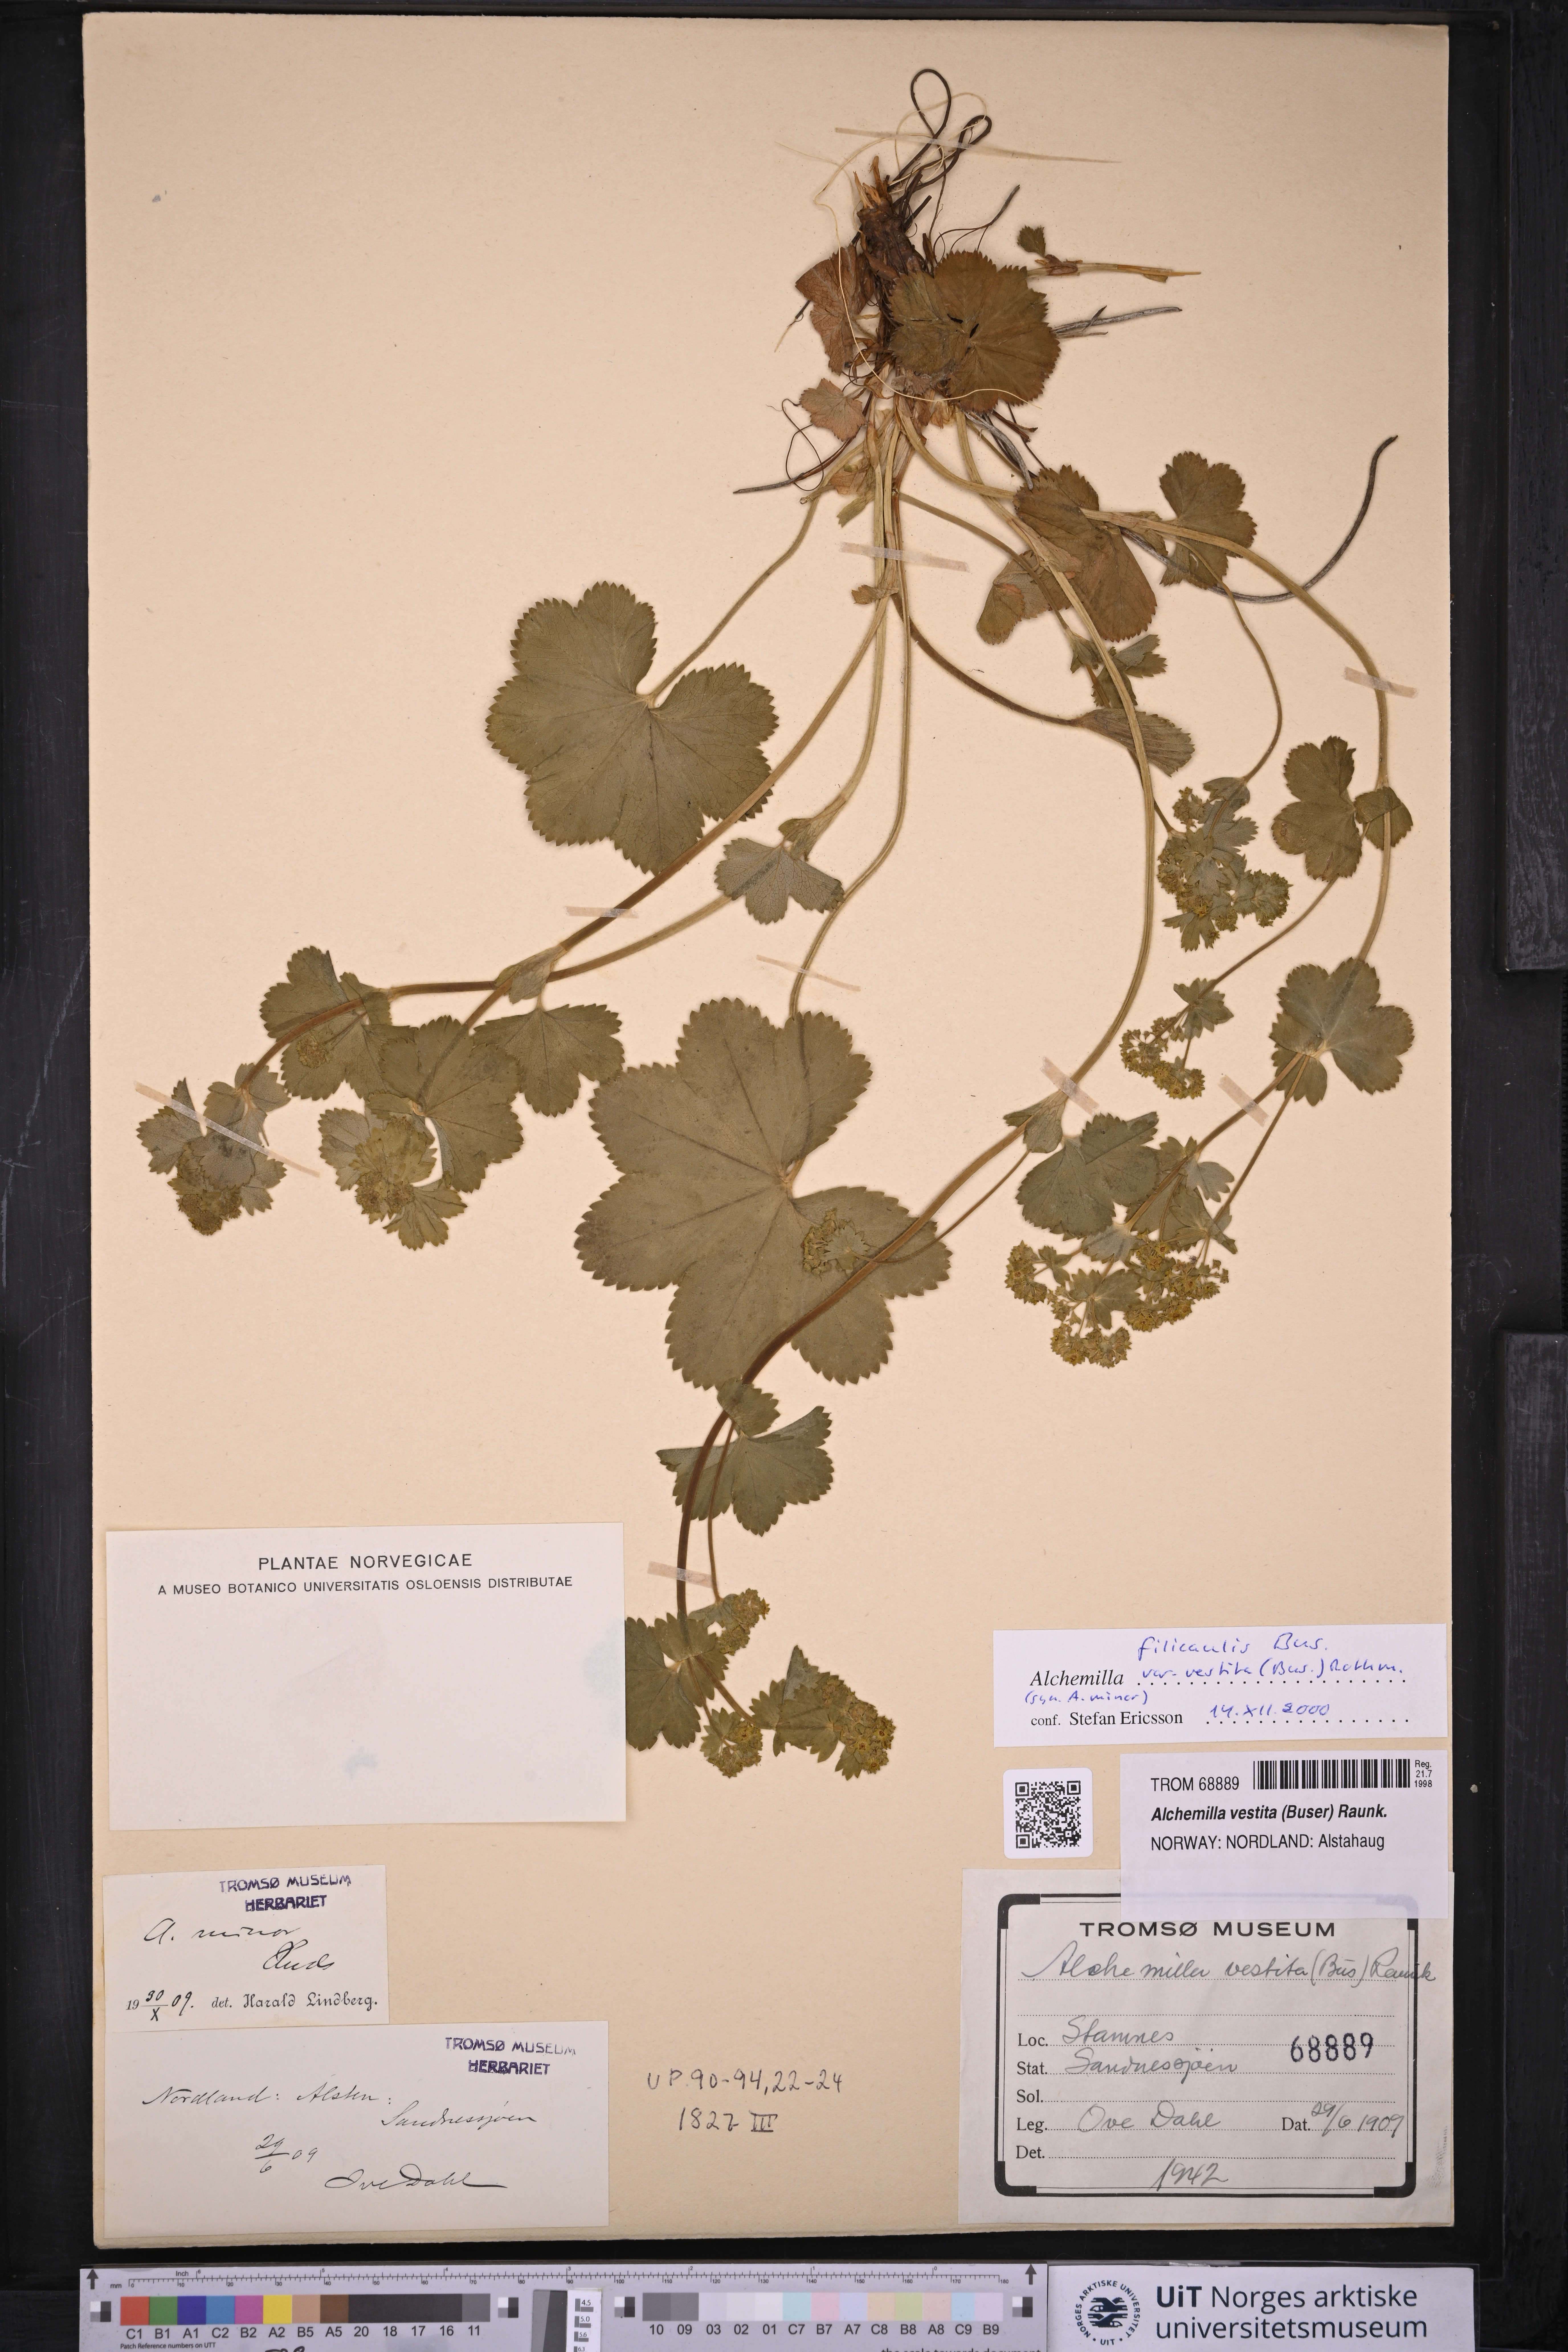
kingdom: Plantae
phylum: Tracheophyta
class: Magnoliopsida
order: Rosales
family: Rosaceae
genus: Alchemilla
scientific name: Alchemilla filicaulis
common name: Hairy lady's-mantle
